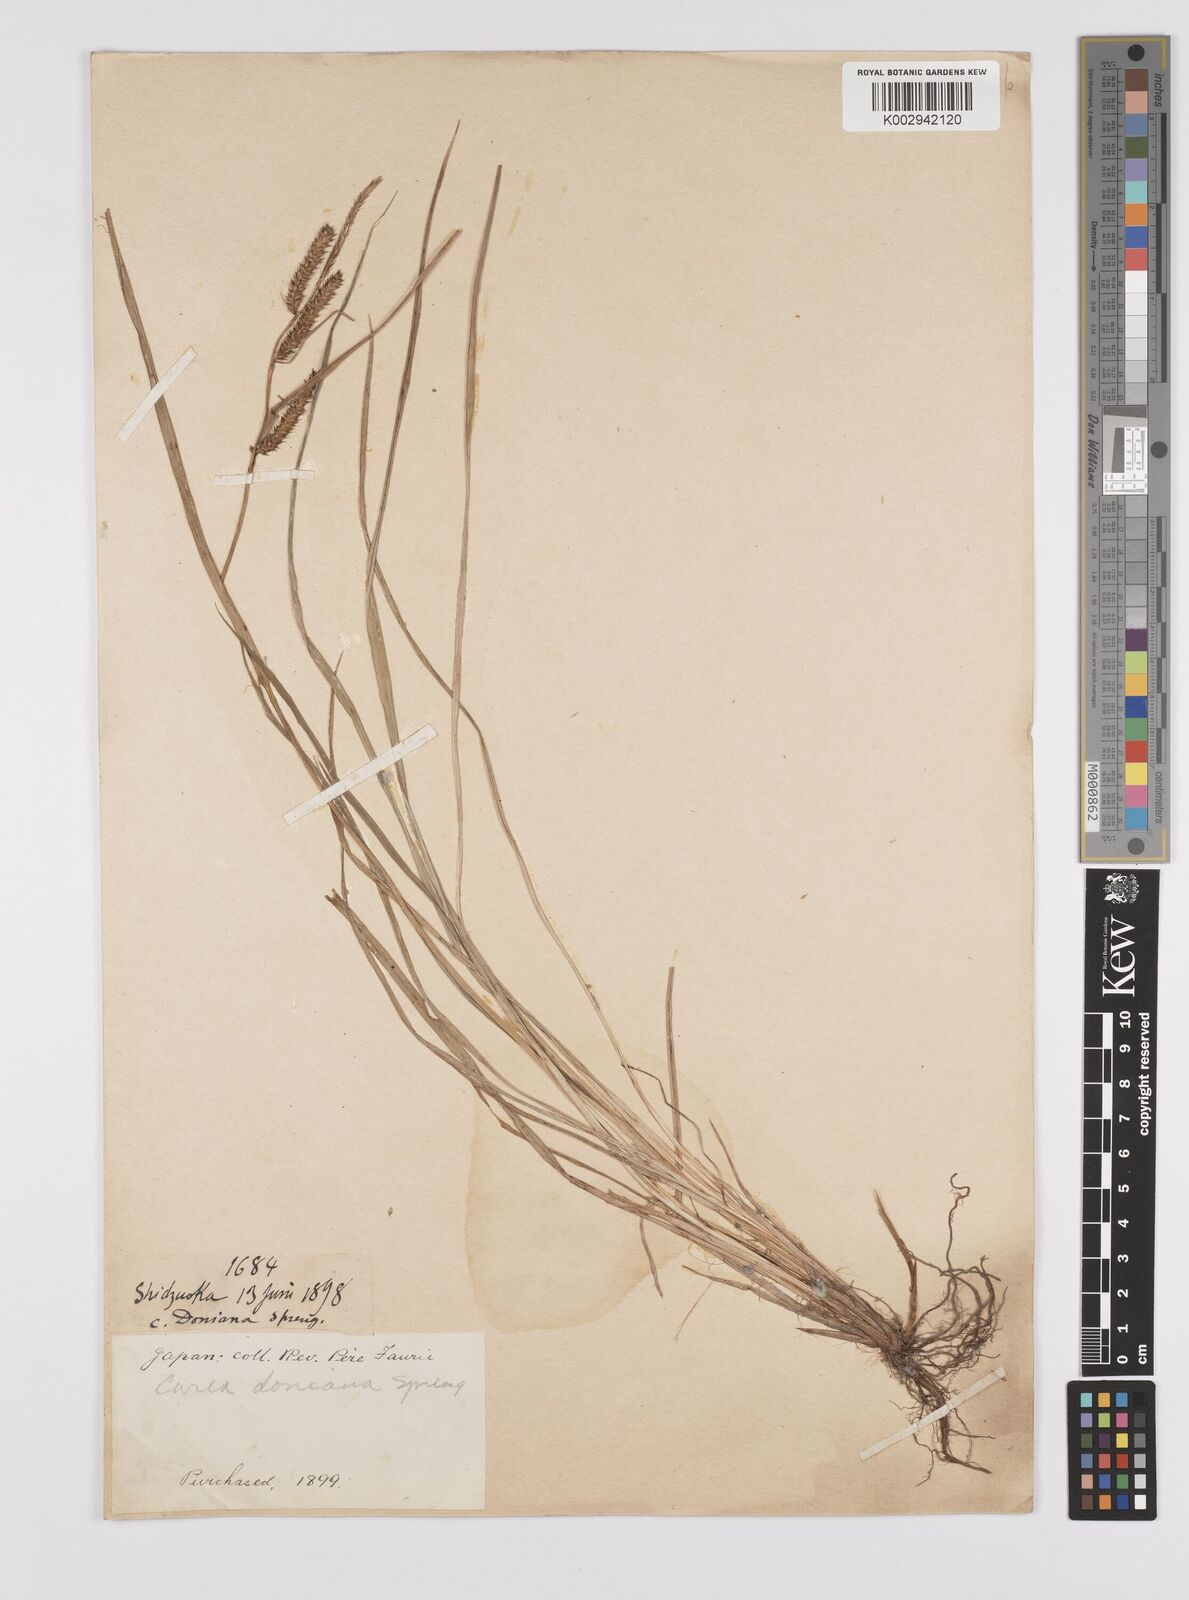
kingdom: Plantae
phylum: Tracheophyta
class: Liliopsida
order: Poales
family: Cyperaceae
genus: Carex
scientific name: Carex japonica
